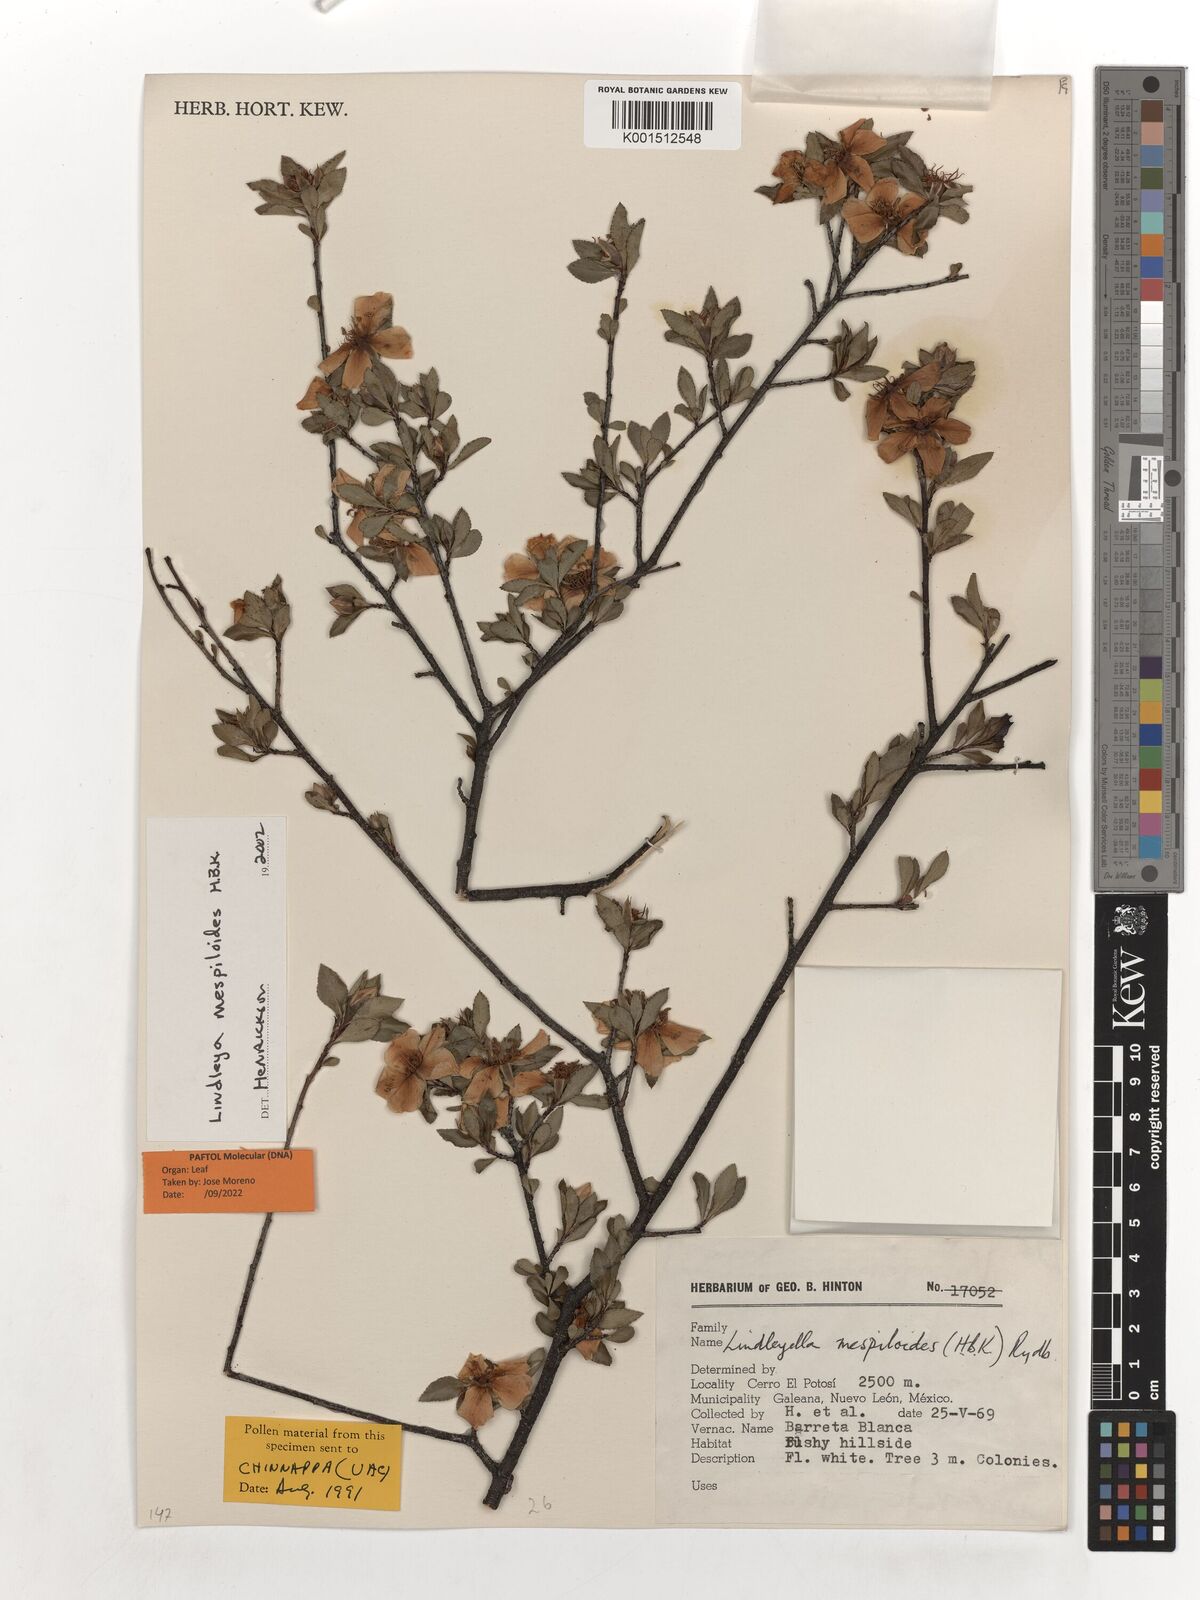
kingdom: Plantae
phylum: Tracheophyta
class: Magnoliopsida
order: Rosales
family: Rosaceae
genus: Lindleya
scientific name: Lindleya mespiloides
